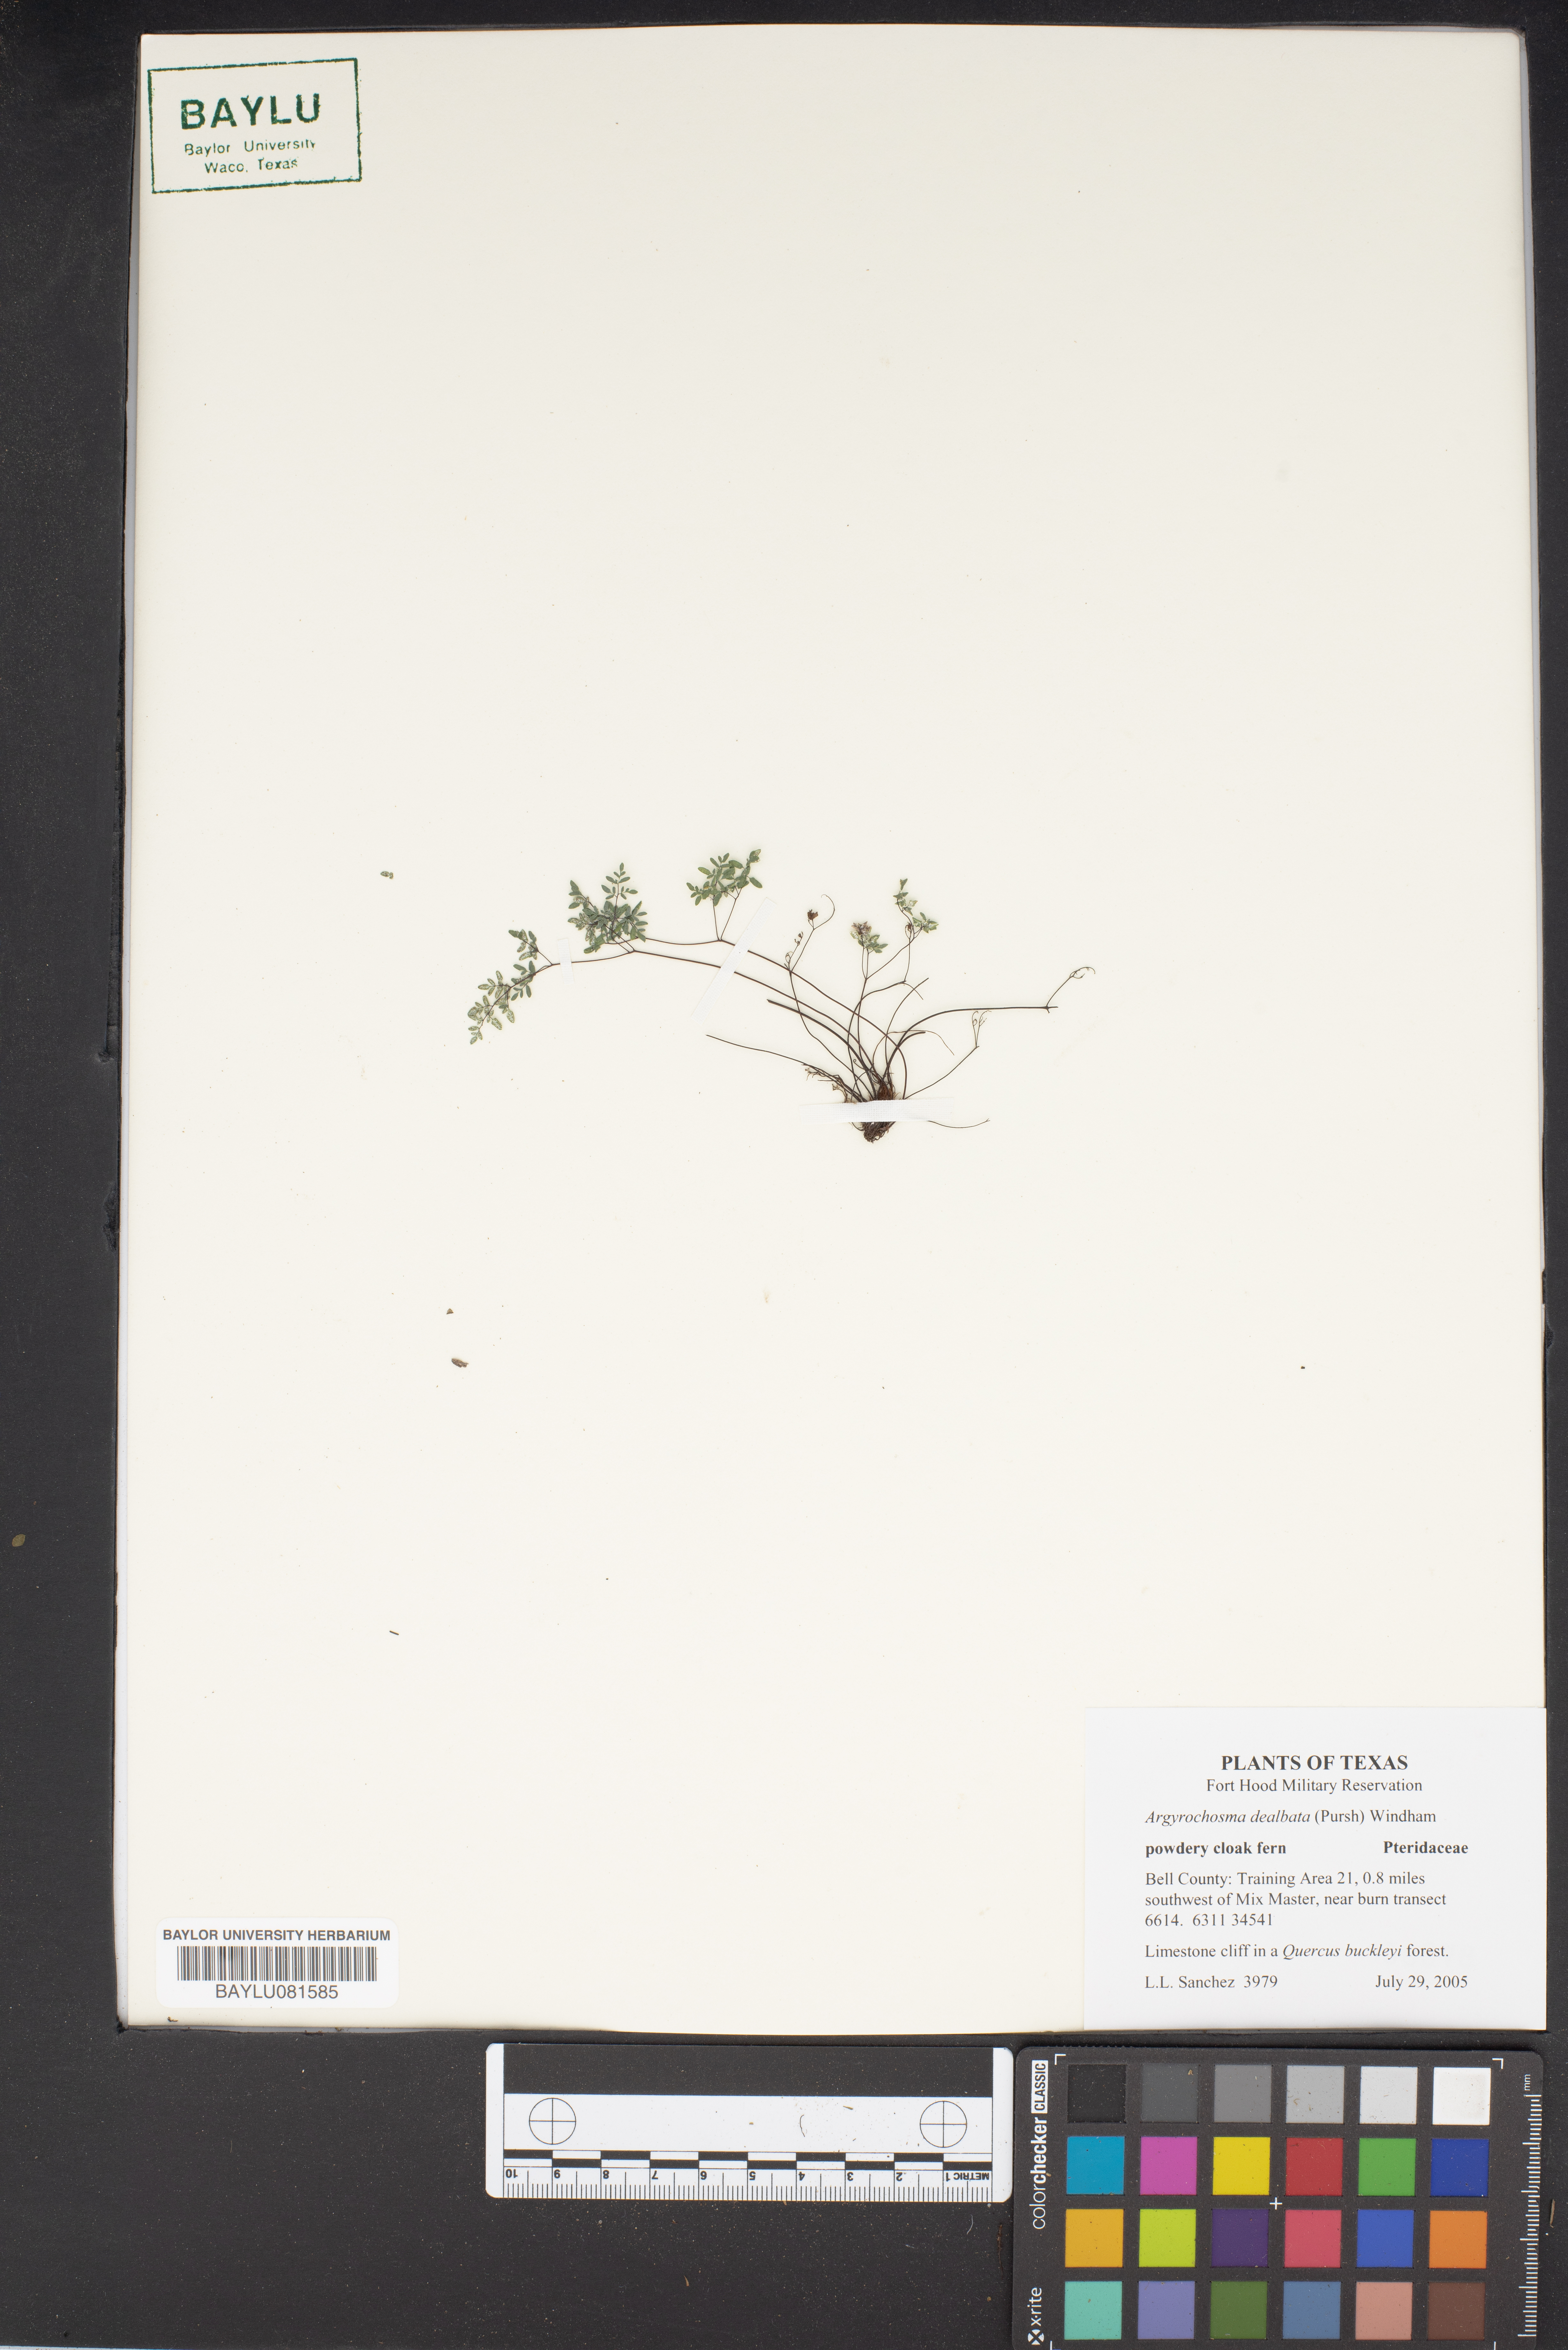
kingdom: Plantae
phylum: Tracheophyta
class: Polypodiopsida
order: Polypodiales
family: Pteridaceae
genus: Argyrochosma
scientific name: Argyrochosma dealbata
